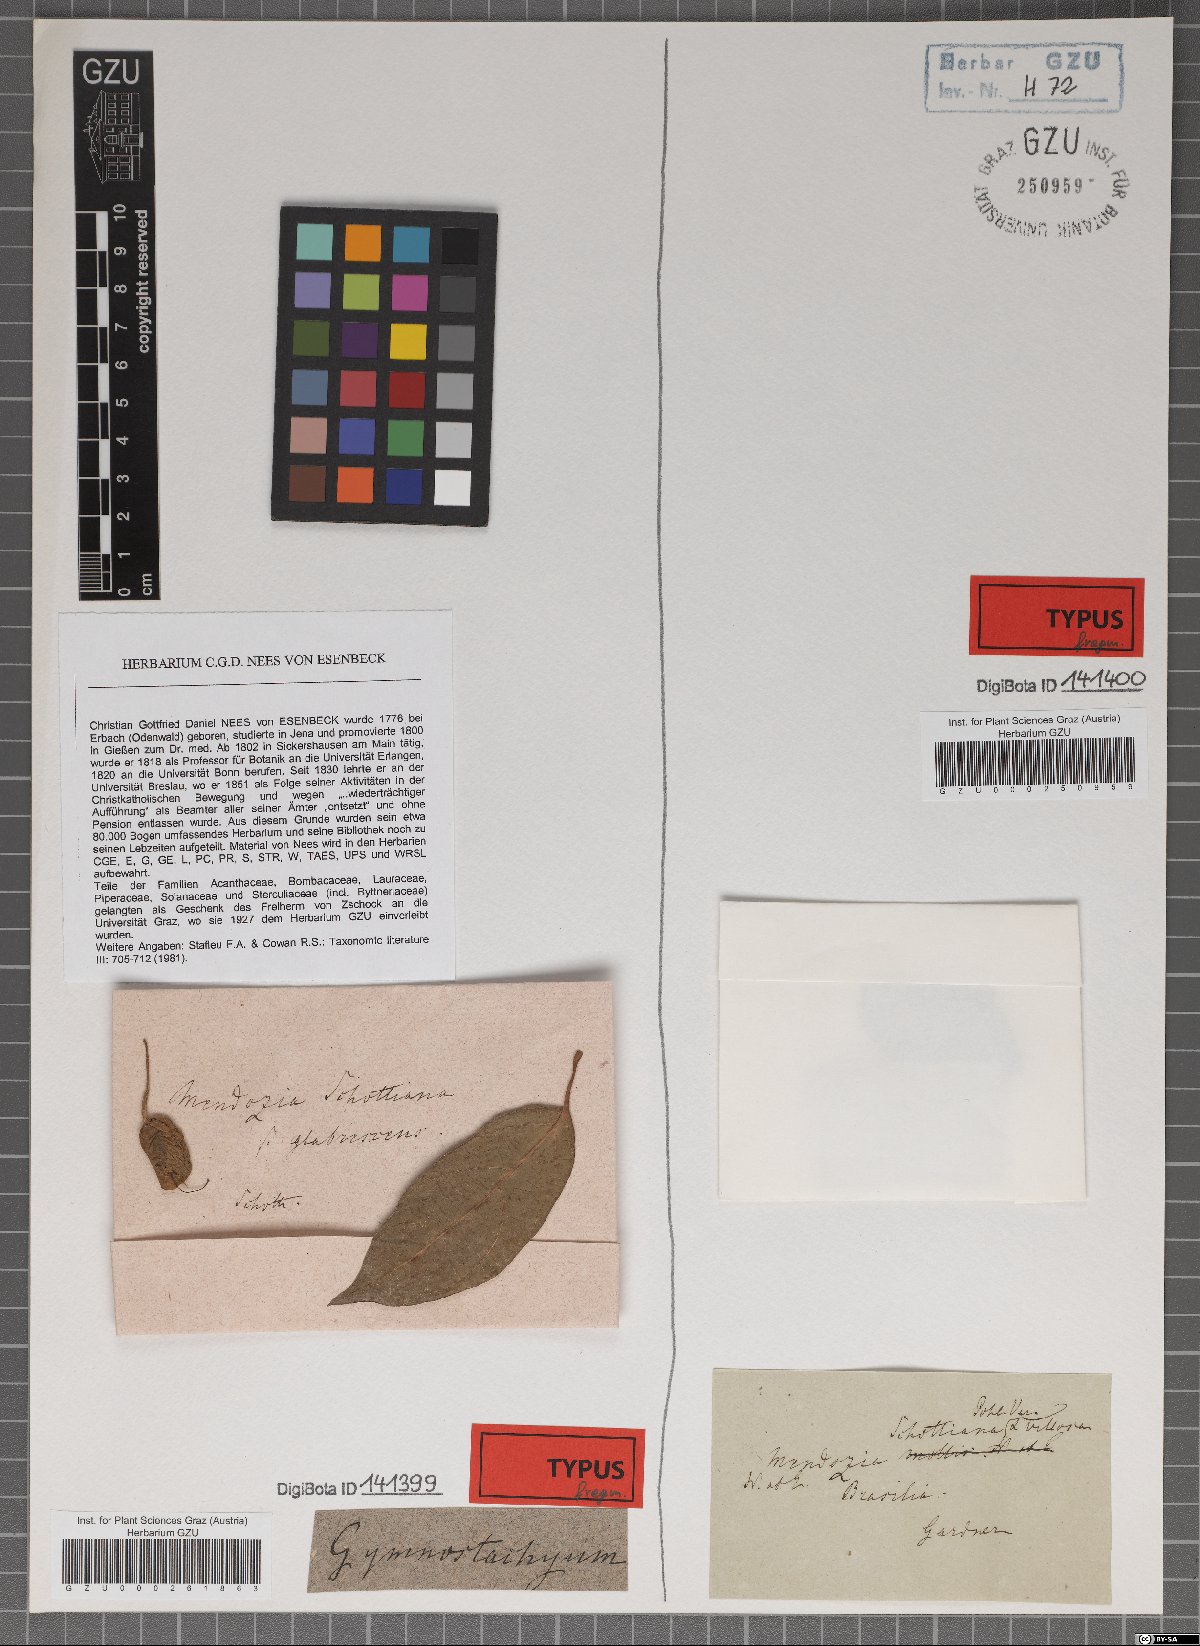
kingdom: Plantae
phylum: Tracheophyta
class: Magnoliopsida
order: Lamiales
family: Acanthaceae
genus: Mendoncia
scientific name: Mendoncia schottiana
